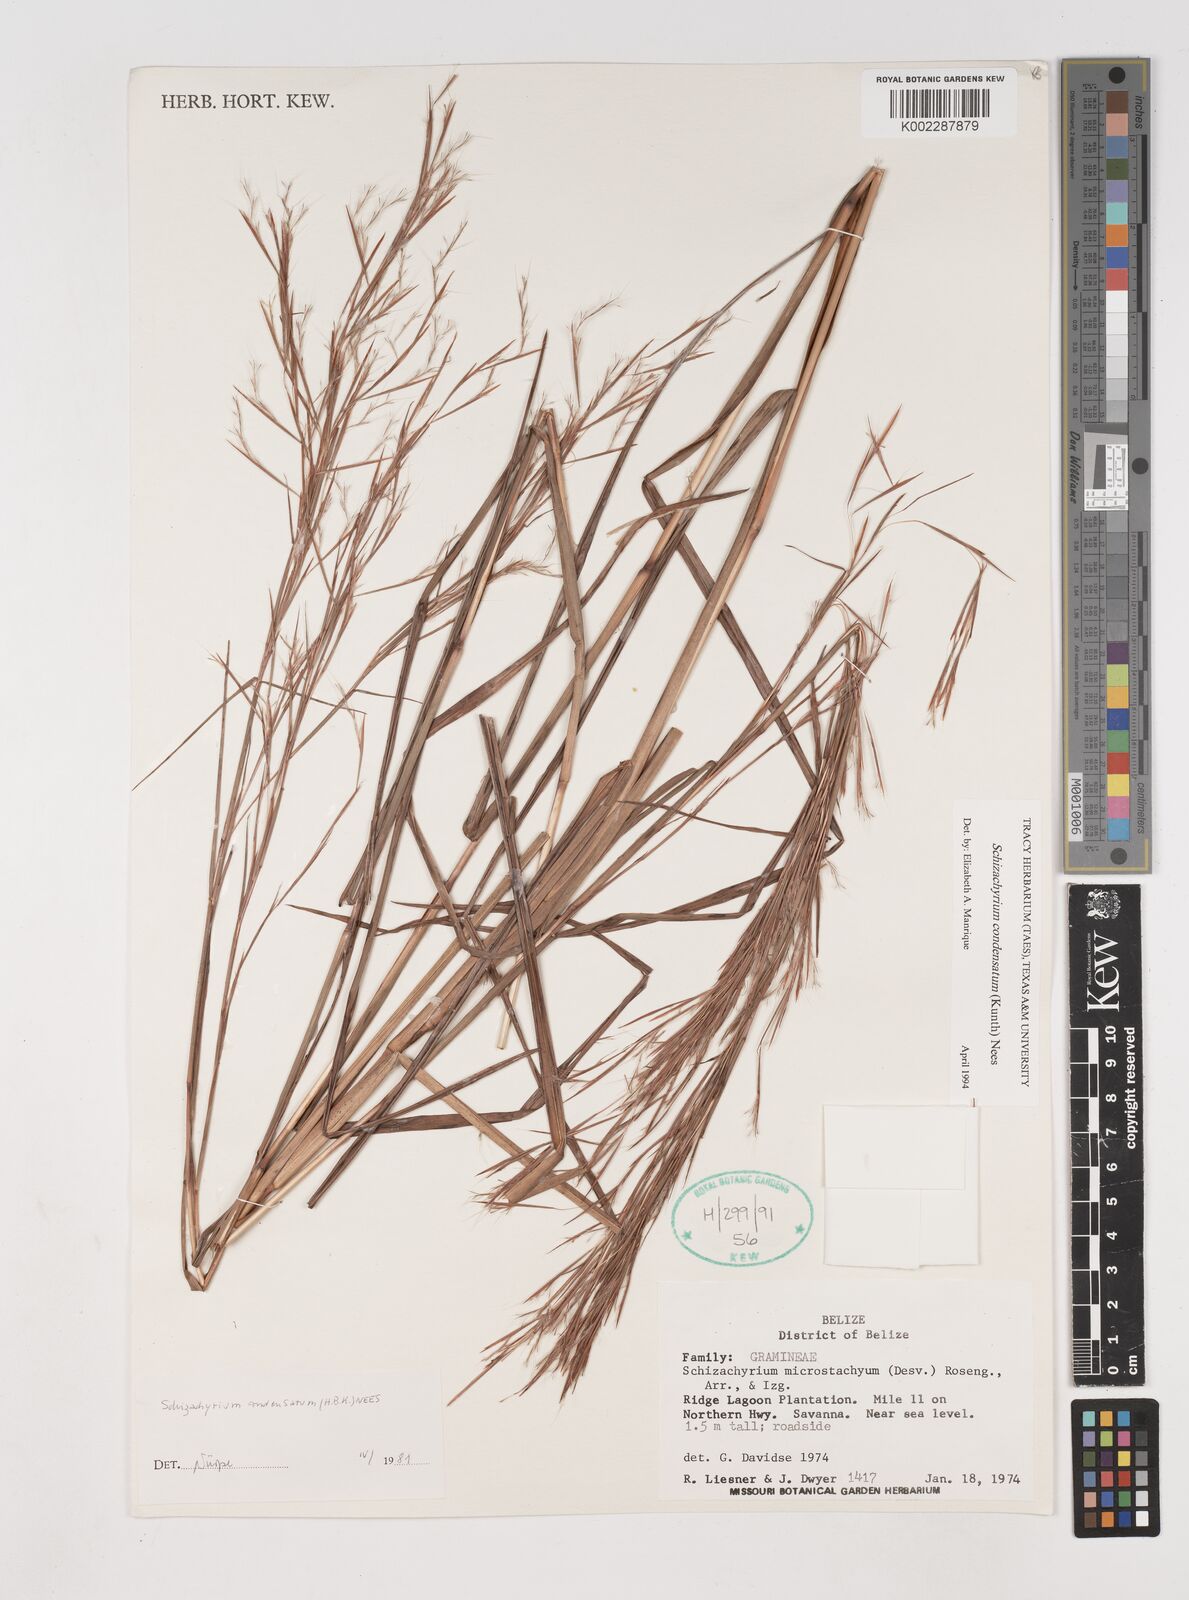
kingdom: Plantae
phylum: Tracheophyta
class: Liliopsida
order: Poales
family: Poaceae
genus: Schizachyrium
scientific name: Schizachyrium condensatum
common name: Bush beardgrass
